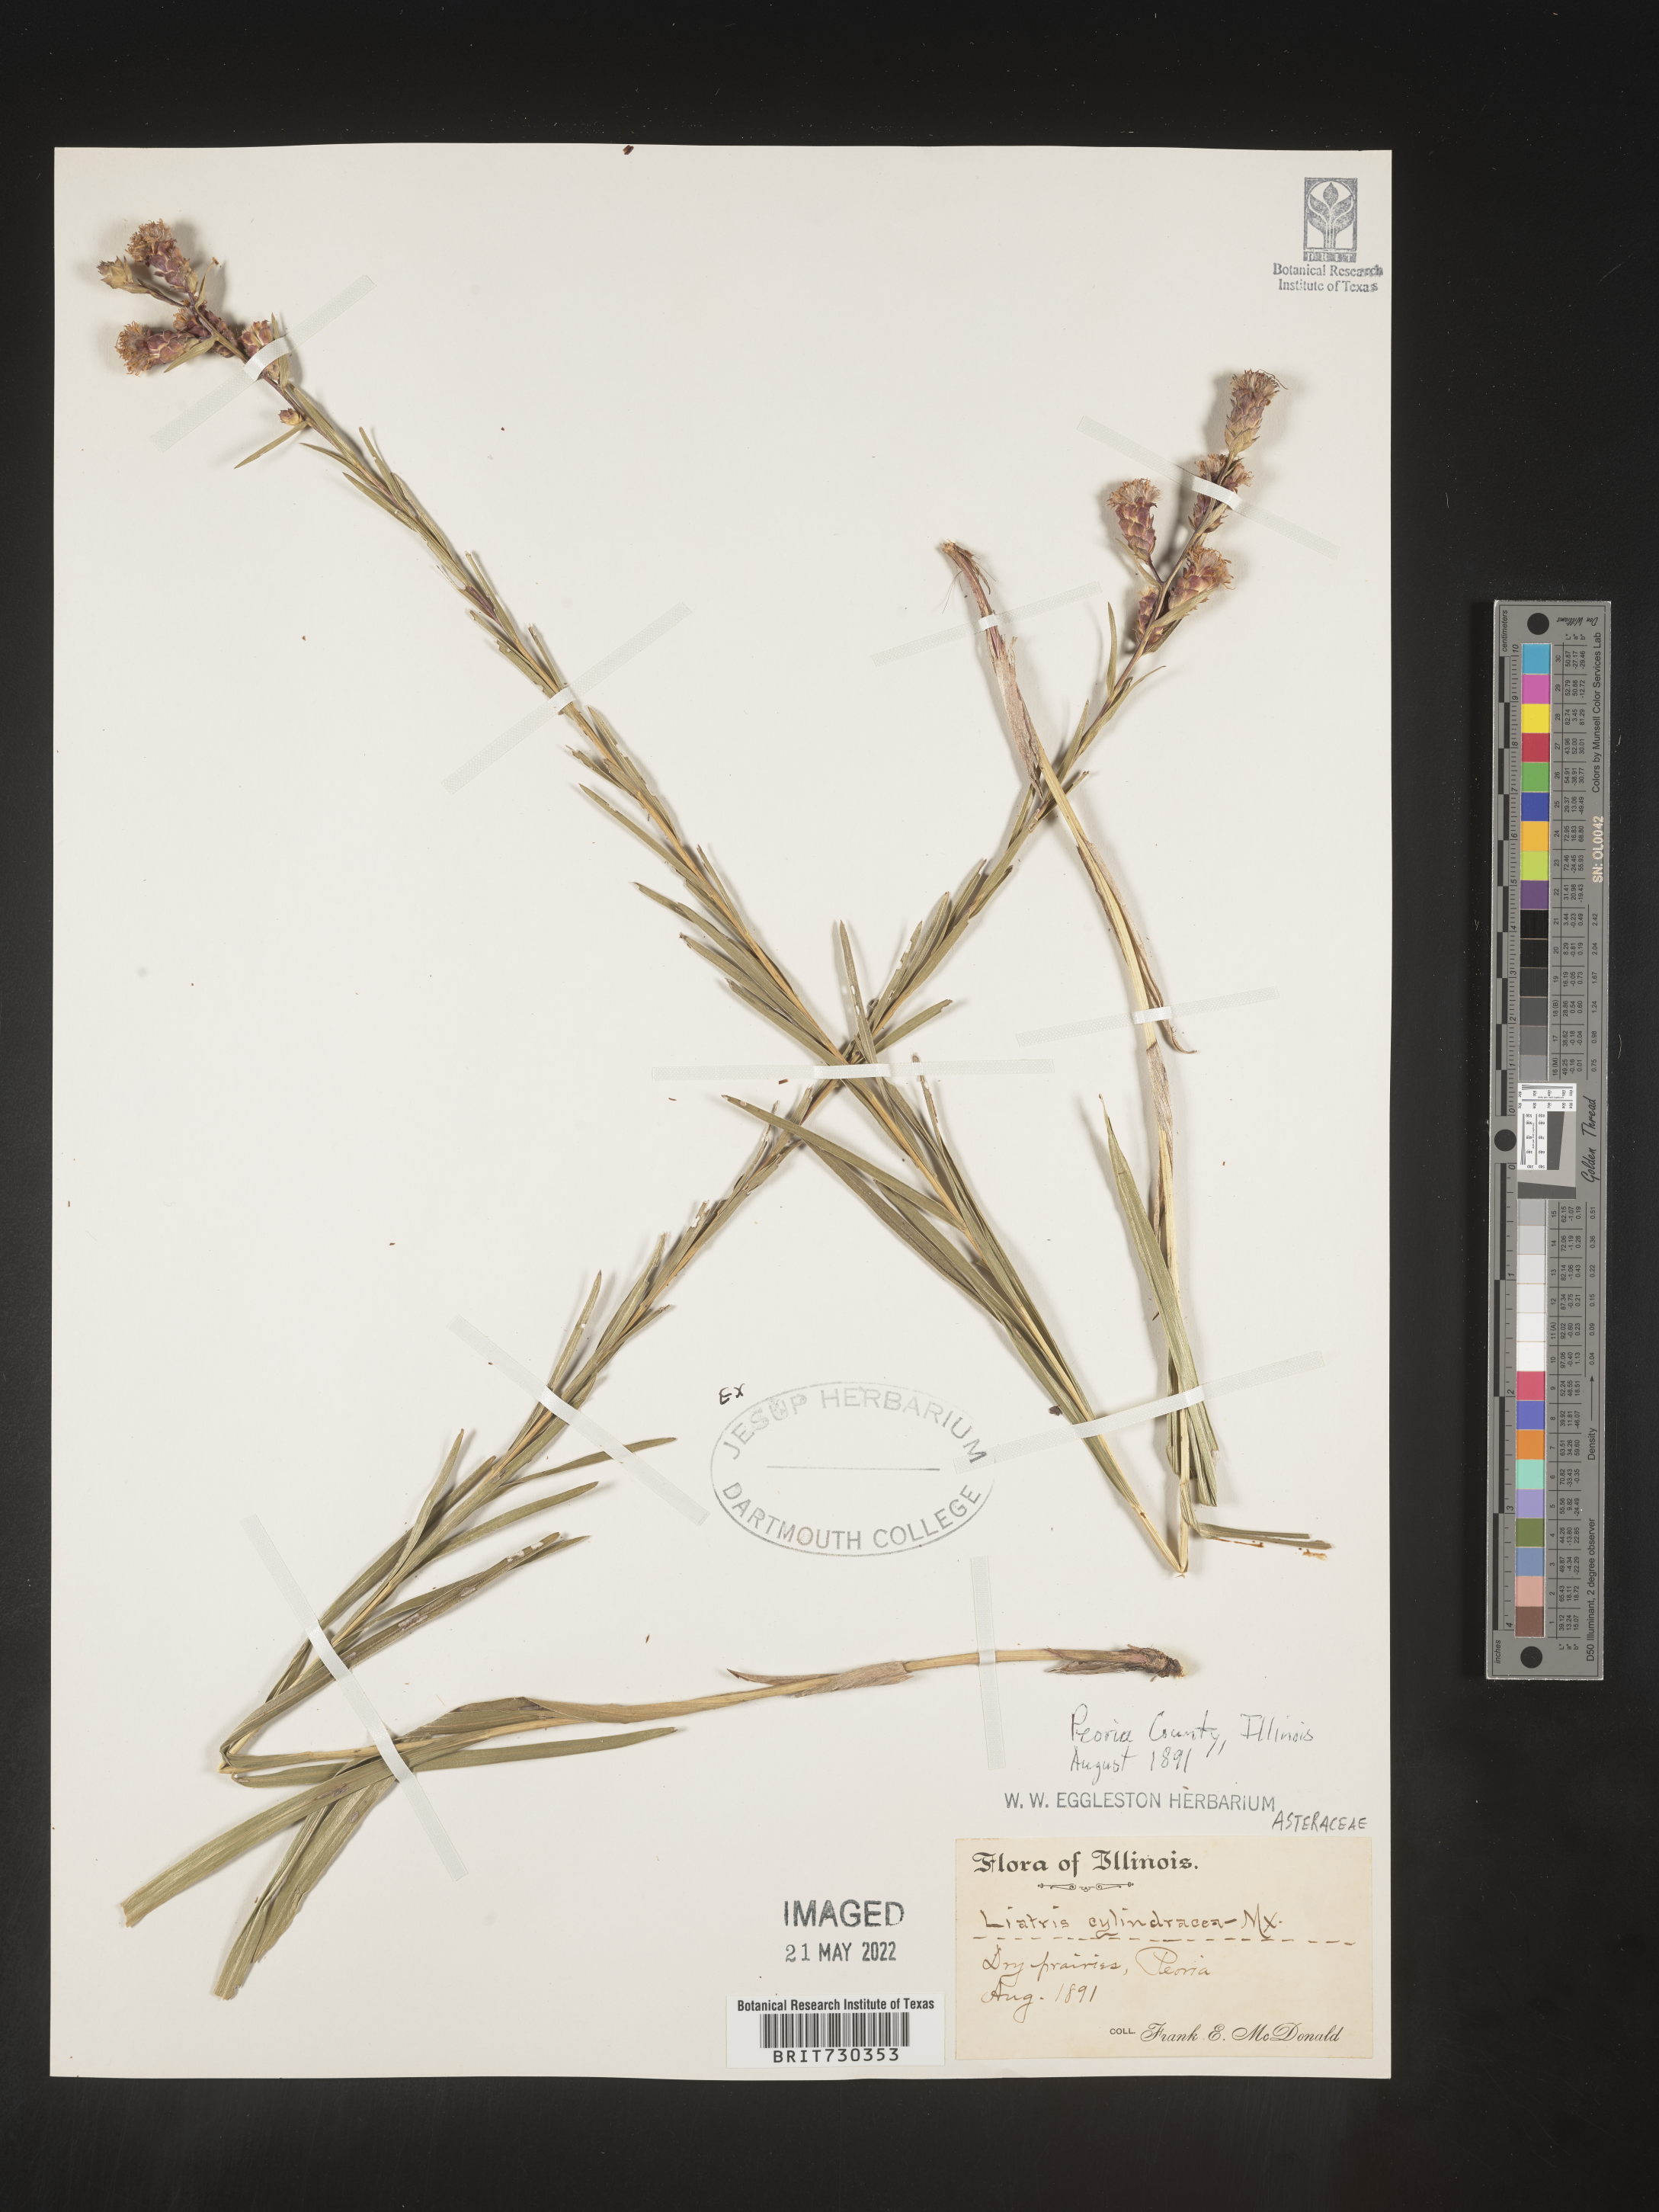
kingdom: Plantae
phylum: Tracheophyta
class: Magnoliopsida
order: Asterales
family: Asteraceae
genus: Liatris
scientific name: Liatris cylindracea
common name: Few-head blazingstar
